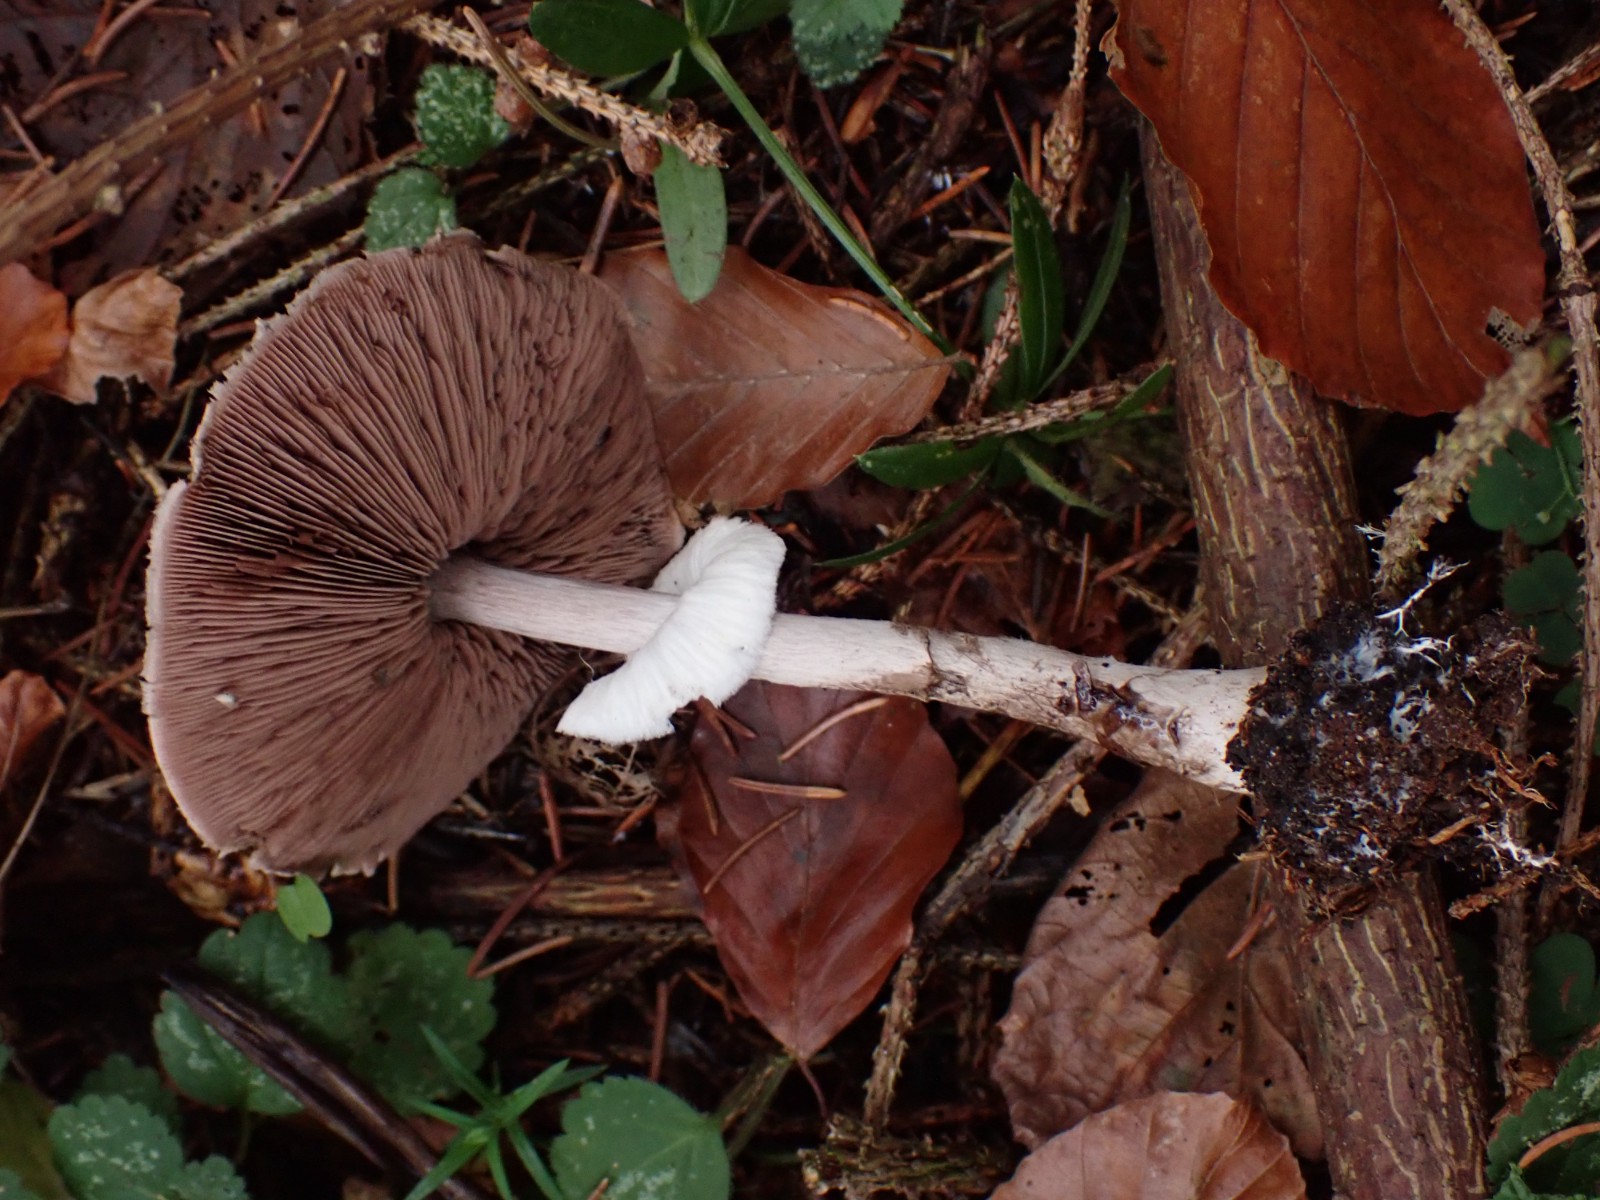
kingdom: Fungi
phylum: Basidiomycota
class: Agaricomycetes
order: Agaricales
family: Agaricaceae
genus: Agaricus
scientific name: Agaricus impudicus
